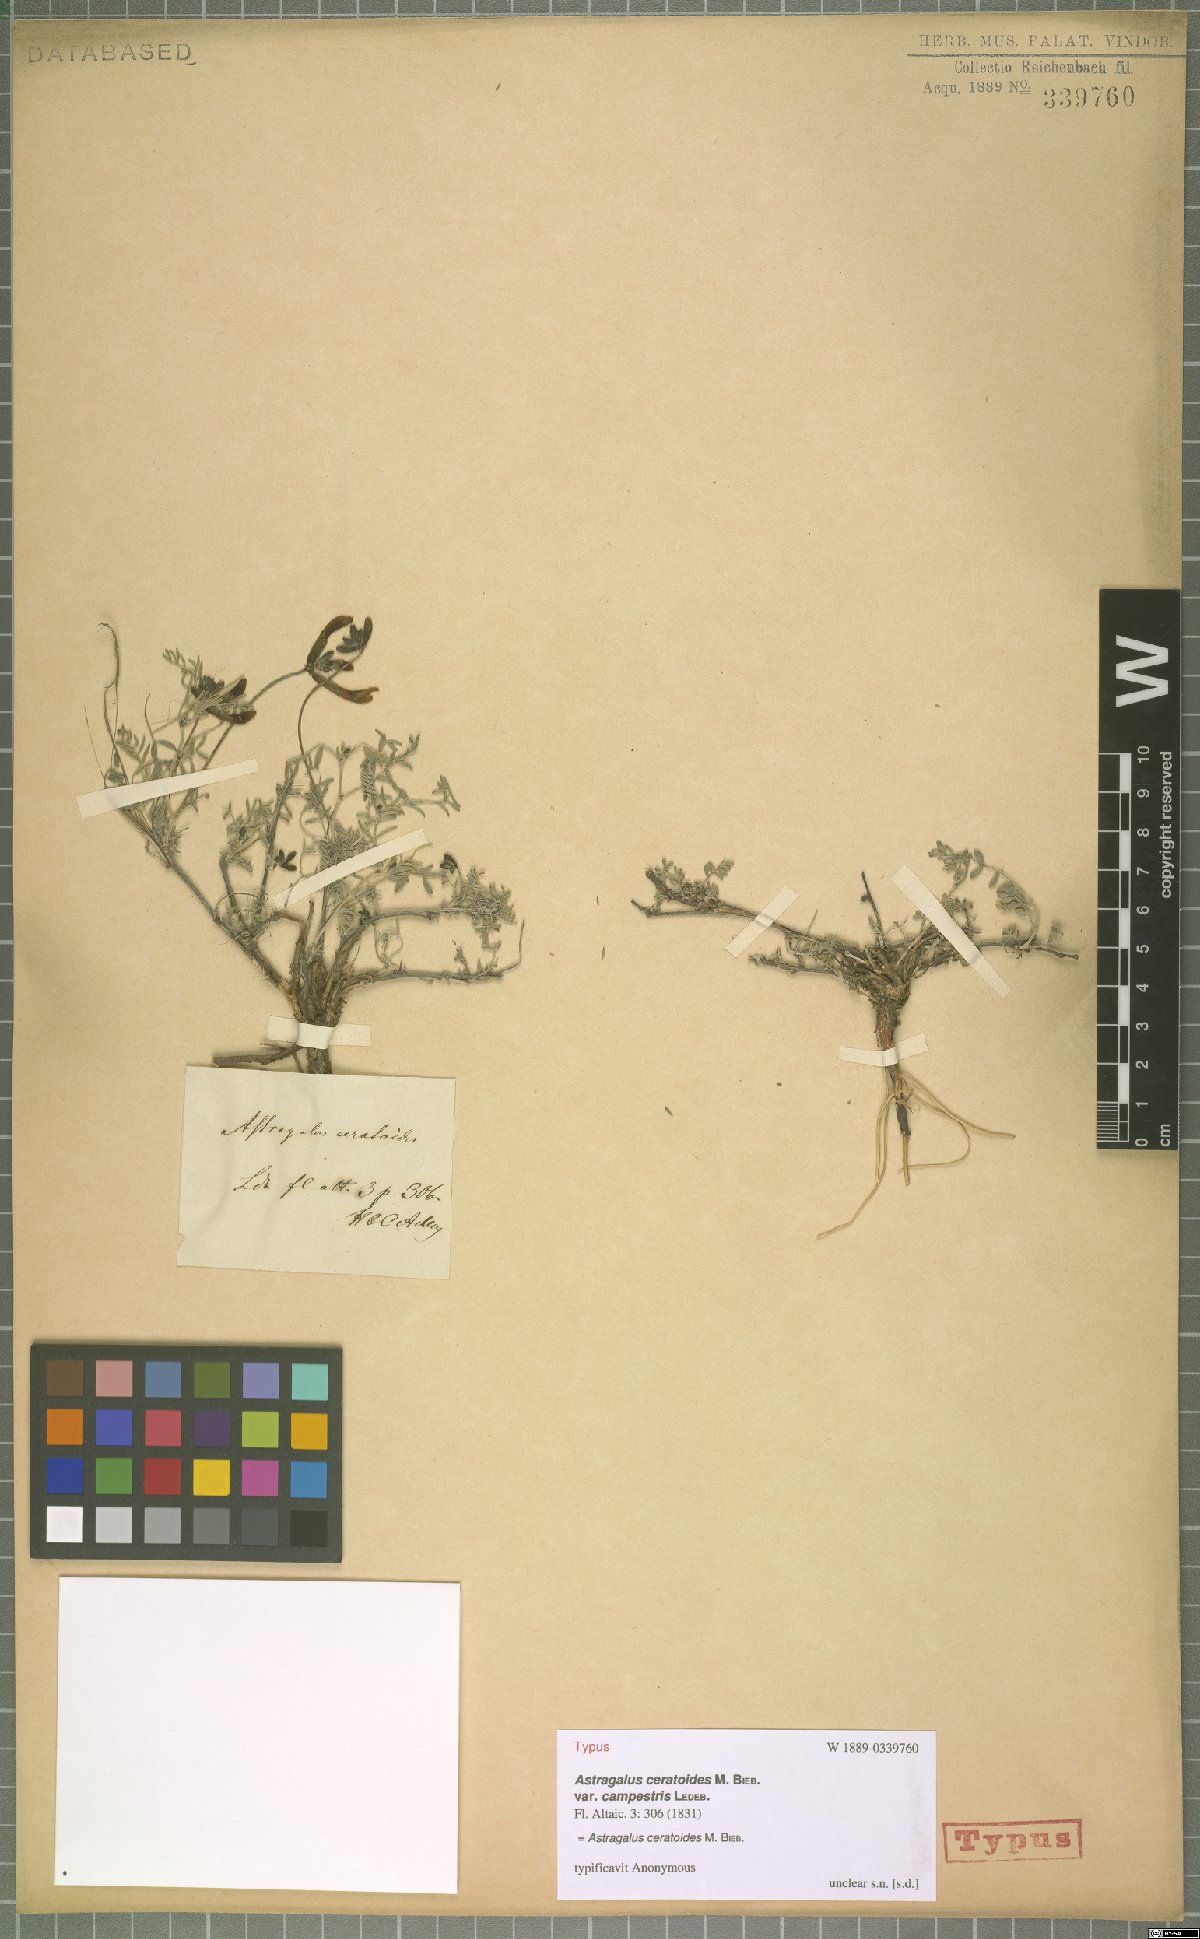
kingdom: Plantae
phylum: Tracheophyta
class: Magnoliopsida
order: Fabales
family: Fabaceae
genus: Astragalus
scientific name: Astragalus ceratoides
